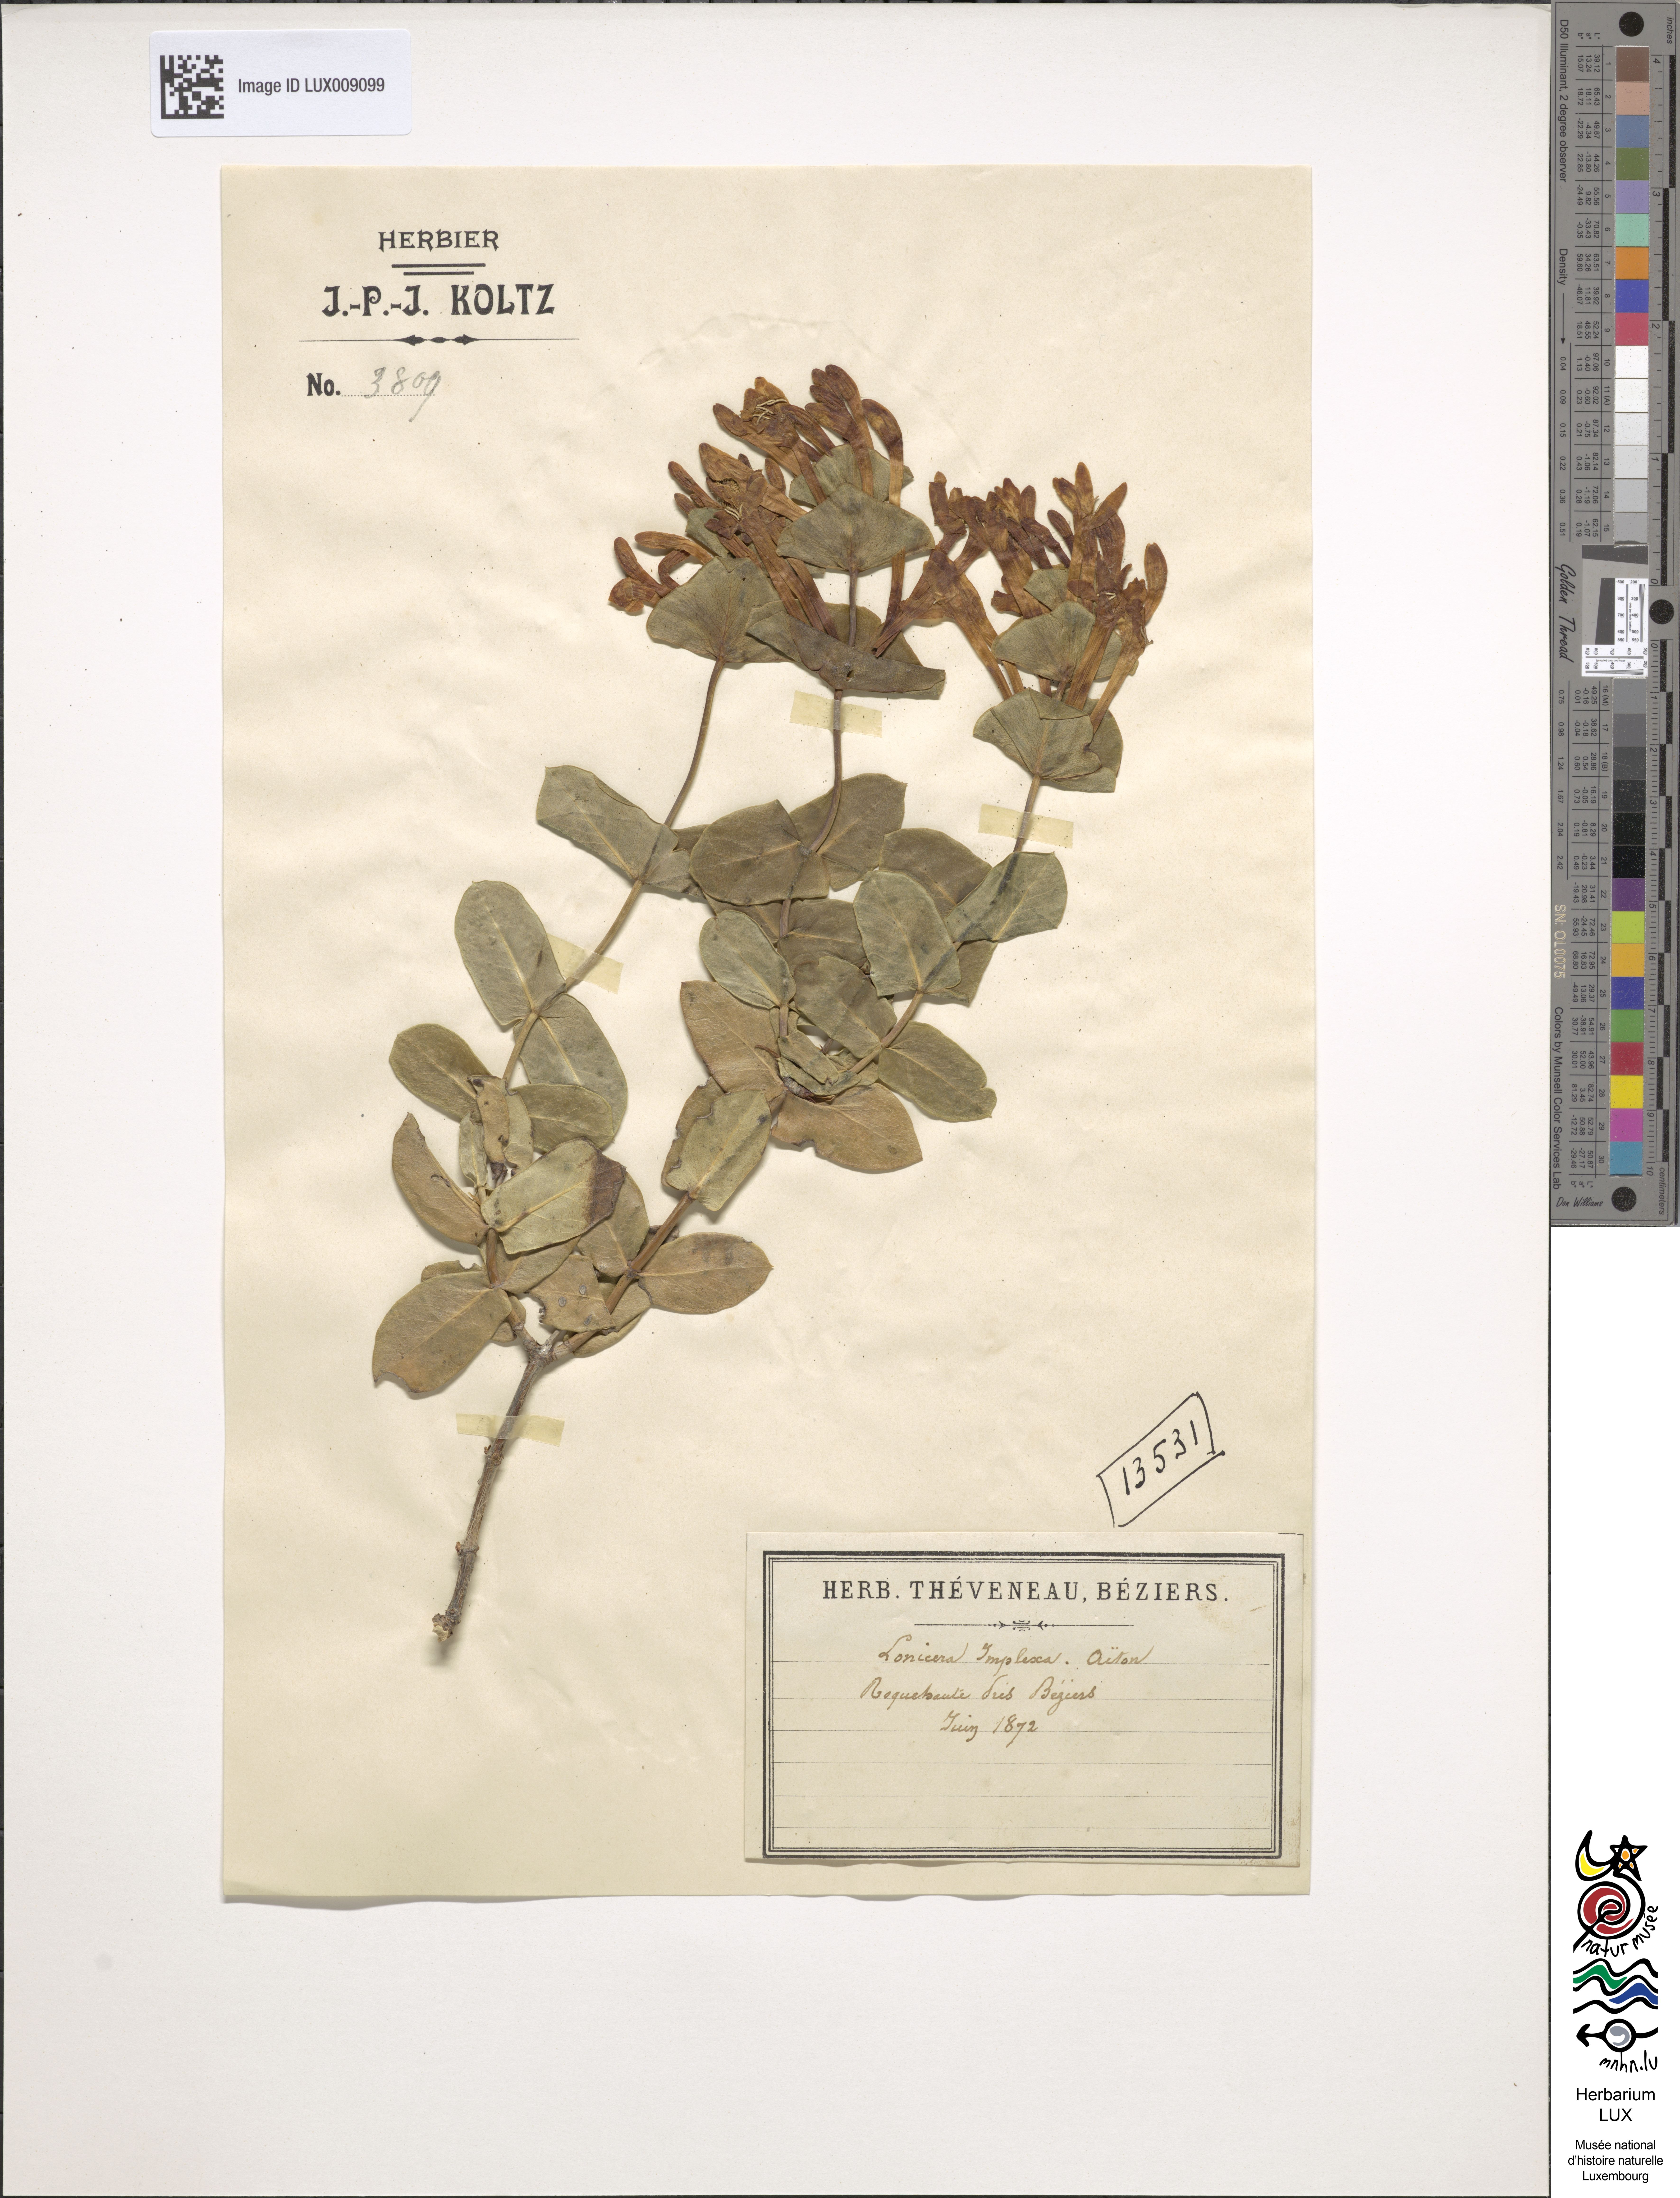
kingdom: Plantae
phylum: Tracheophyta
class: Magnoliopsida
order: Dipsacales
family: Caprifoliaceae
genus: Lonicera
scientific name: Lonicera implexa
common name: Minorca honeysuckle
